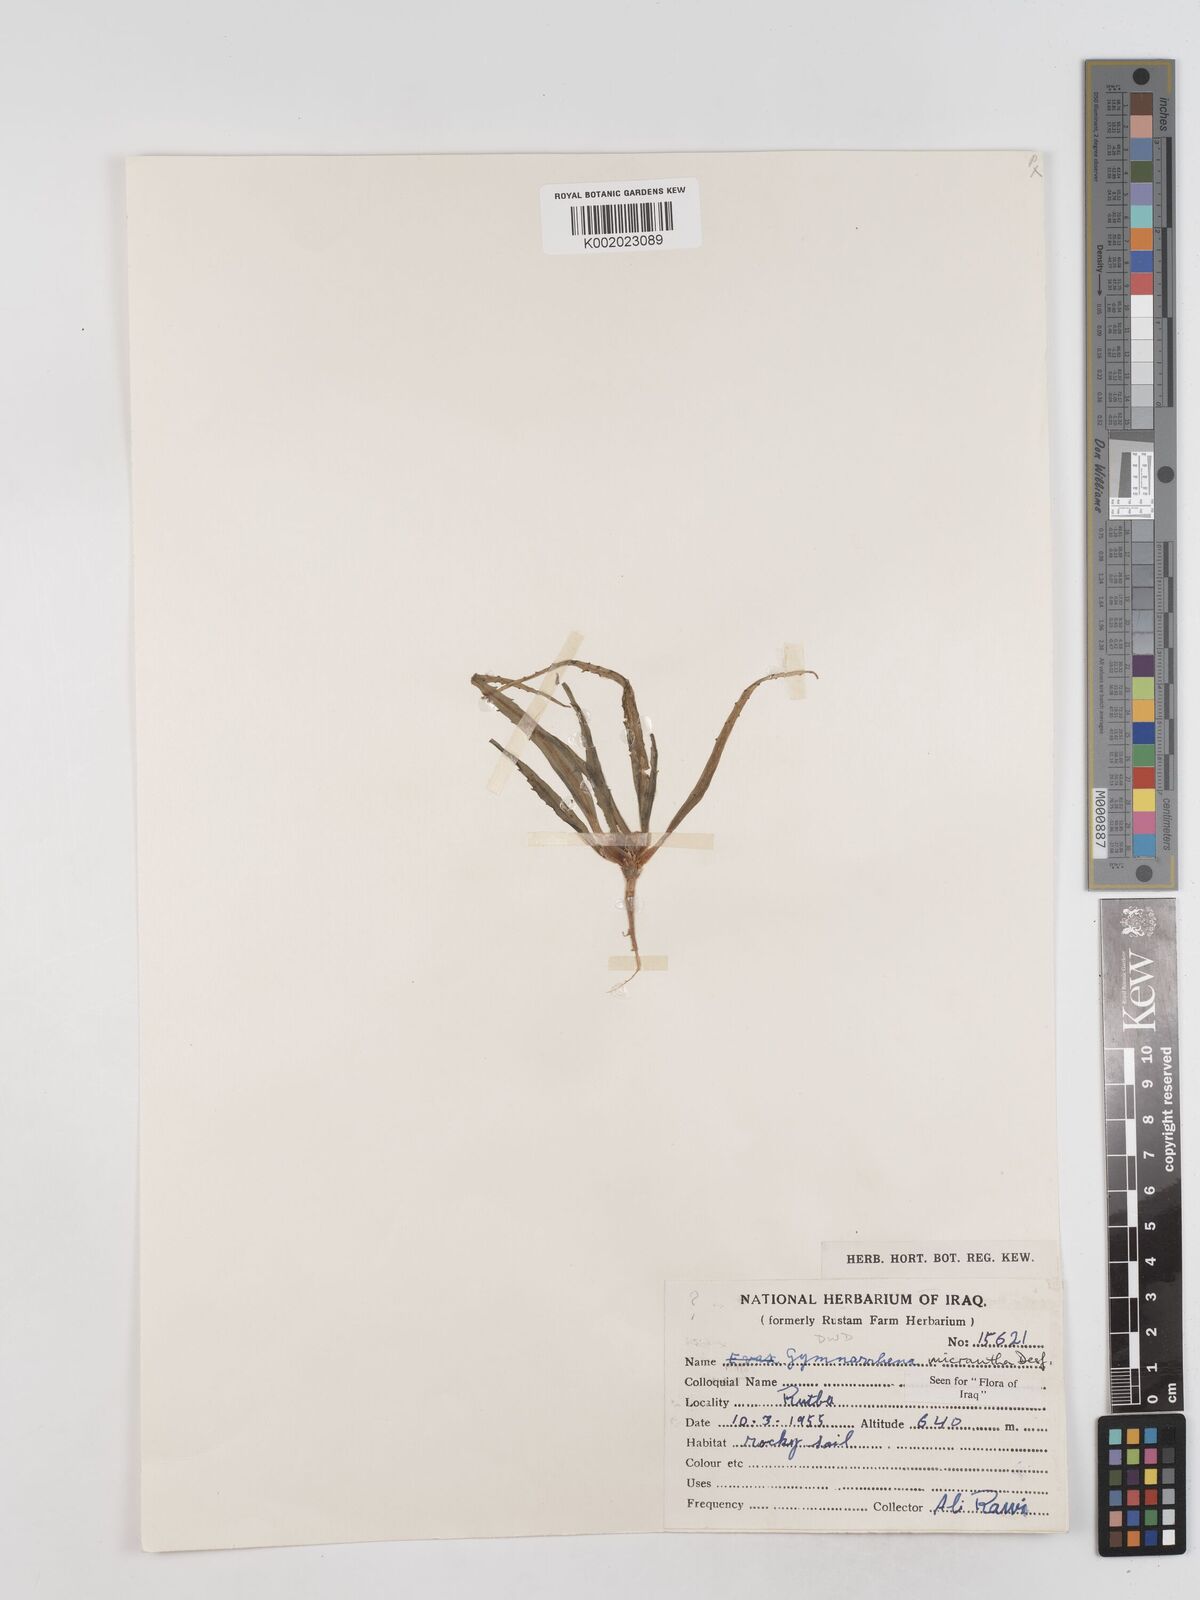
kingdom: Plantae
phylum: Tracheophyta
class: Magnoliopsida
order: Asterales
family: Asteraceae
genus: Gymnarrhena
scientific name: Gymnarrhena micrantha
